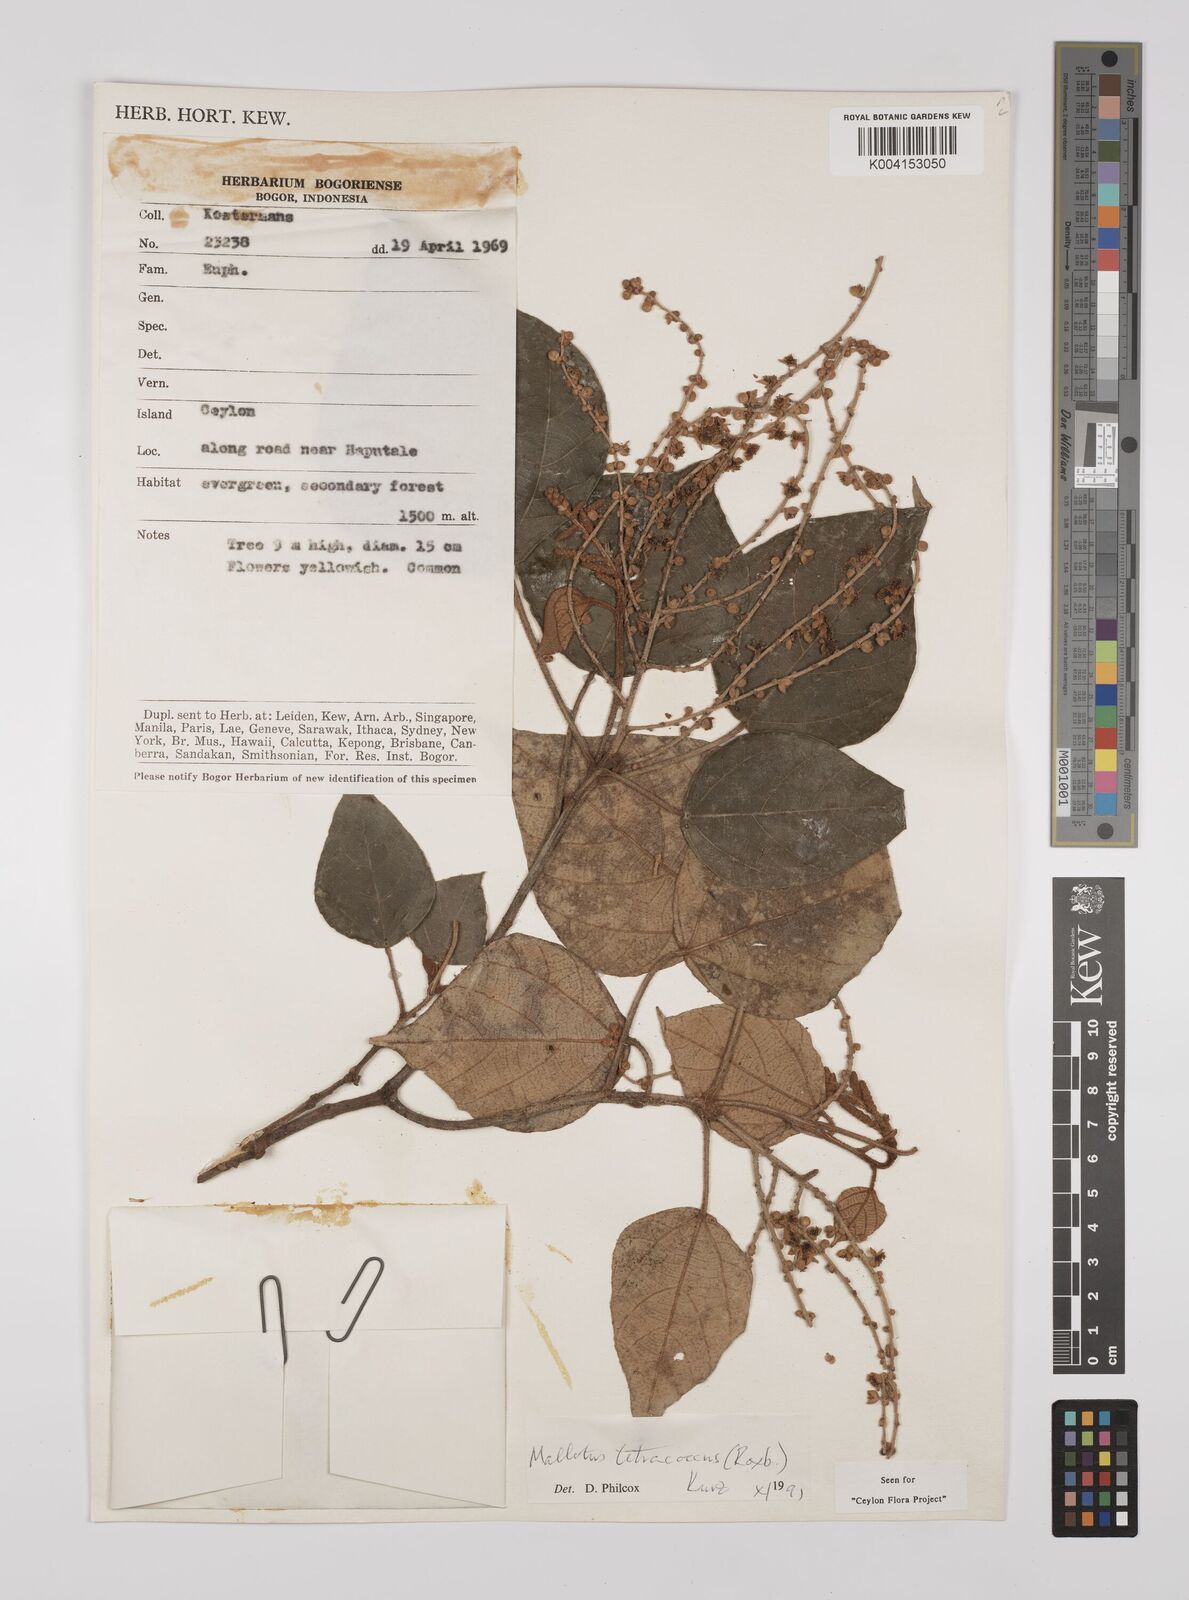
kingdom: Plantae
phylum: Tracheophyta
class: Magnoliopsida
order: Malpighiales
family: Euphorbiaceae
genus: Mallotus
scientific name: Mallotus tetracoccus
